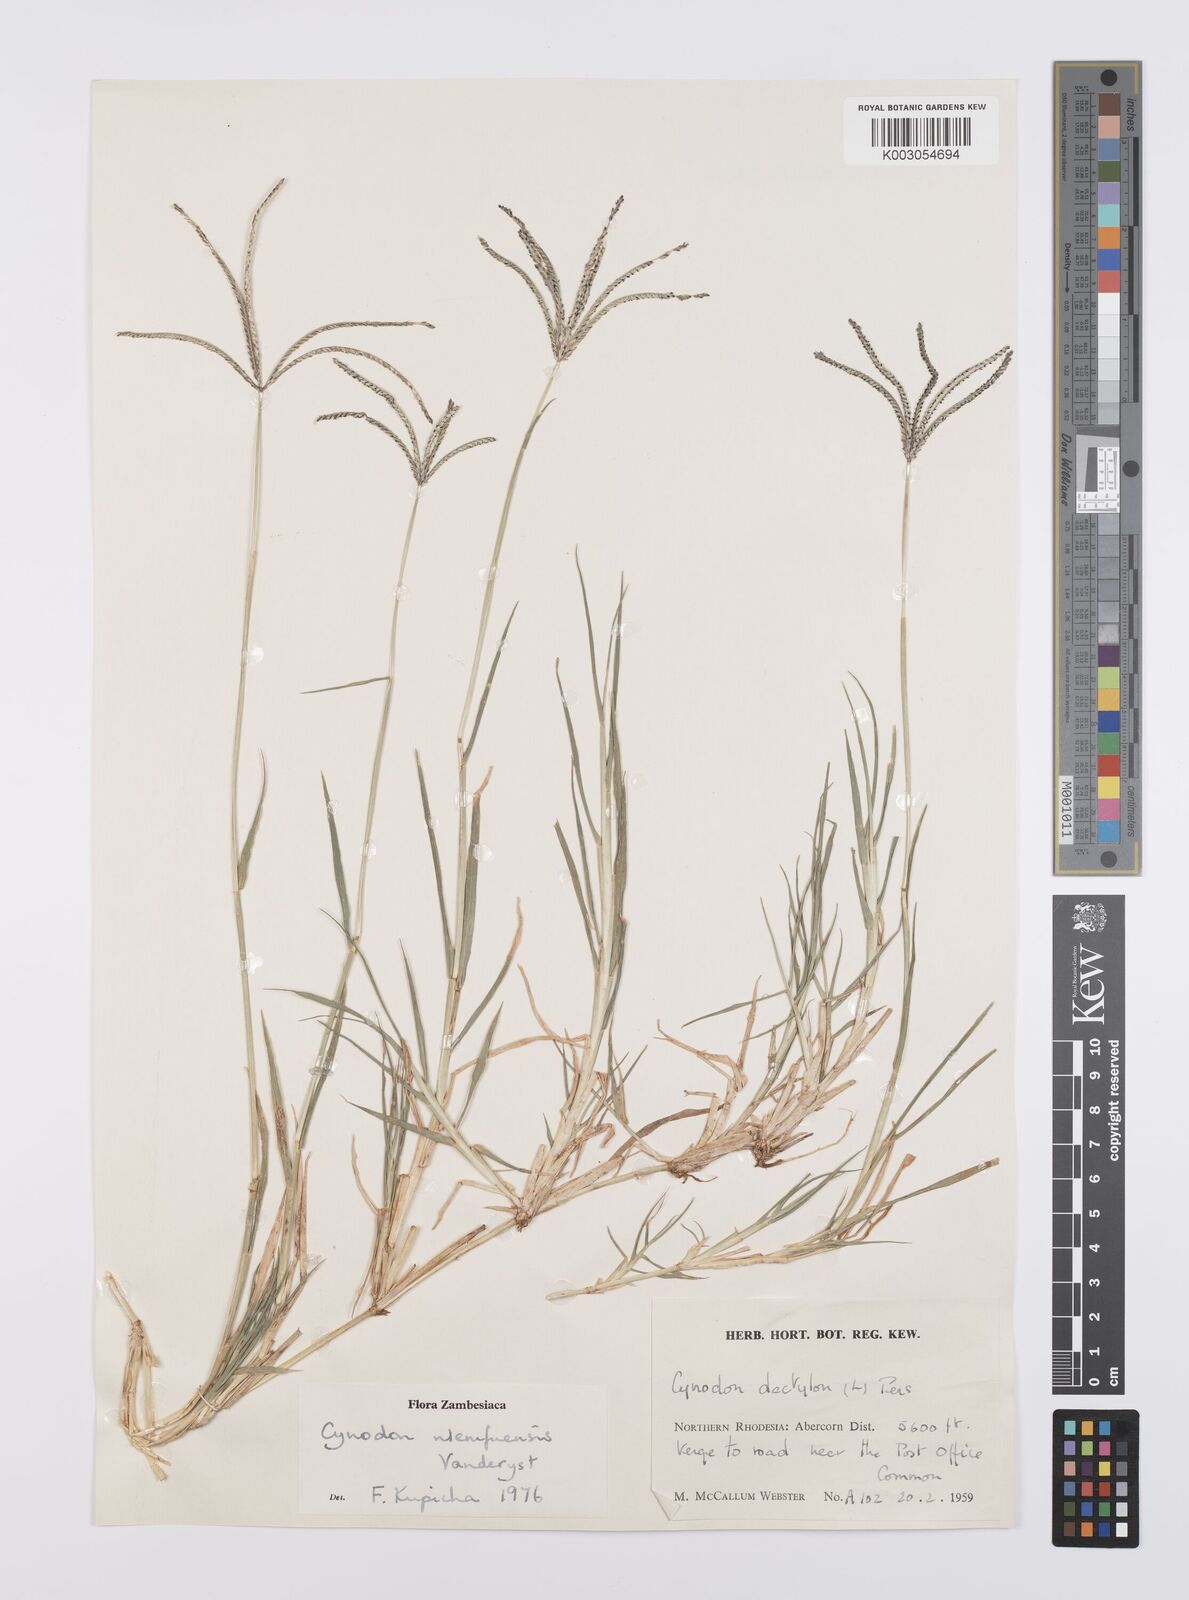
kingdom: Plantae
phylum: Tracheophyta
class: Liliopsida
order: Poales
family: Poaceae
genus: Cynodon
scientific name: Cynodon nlemfuensis
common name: African bermudagrass
